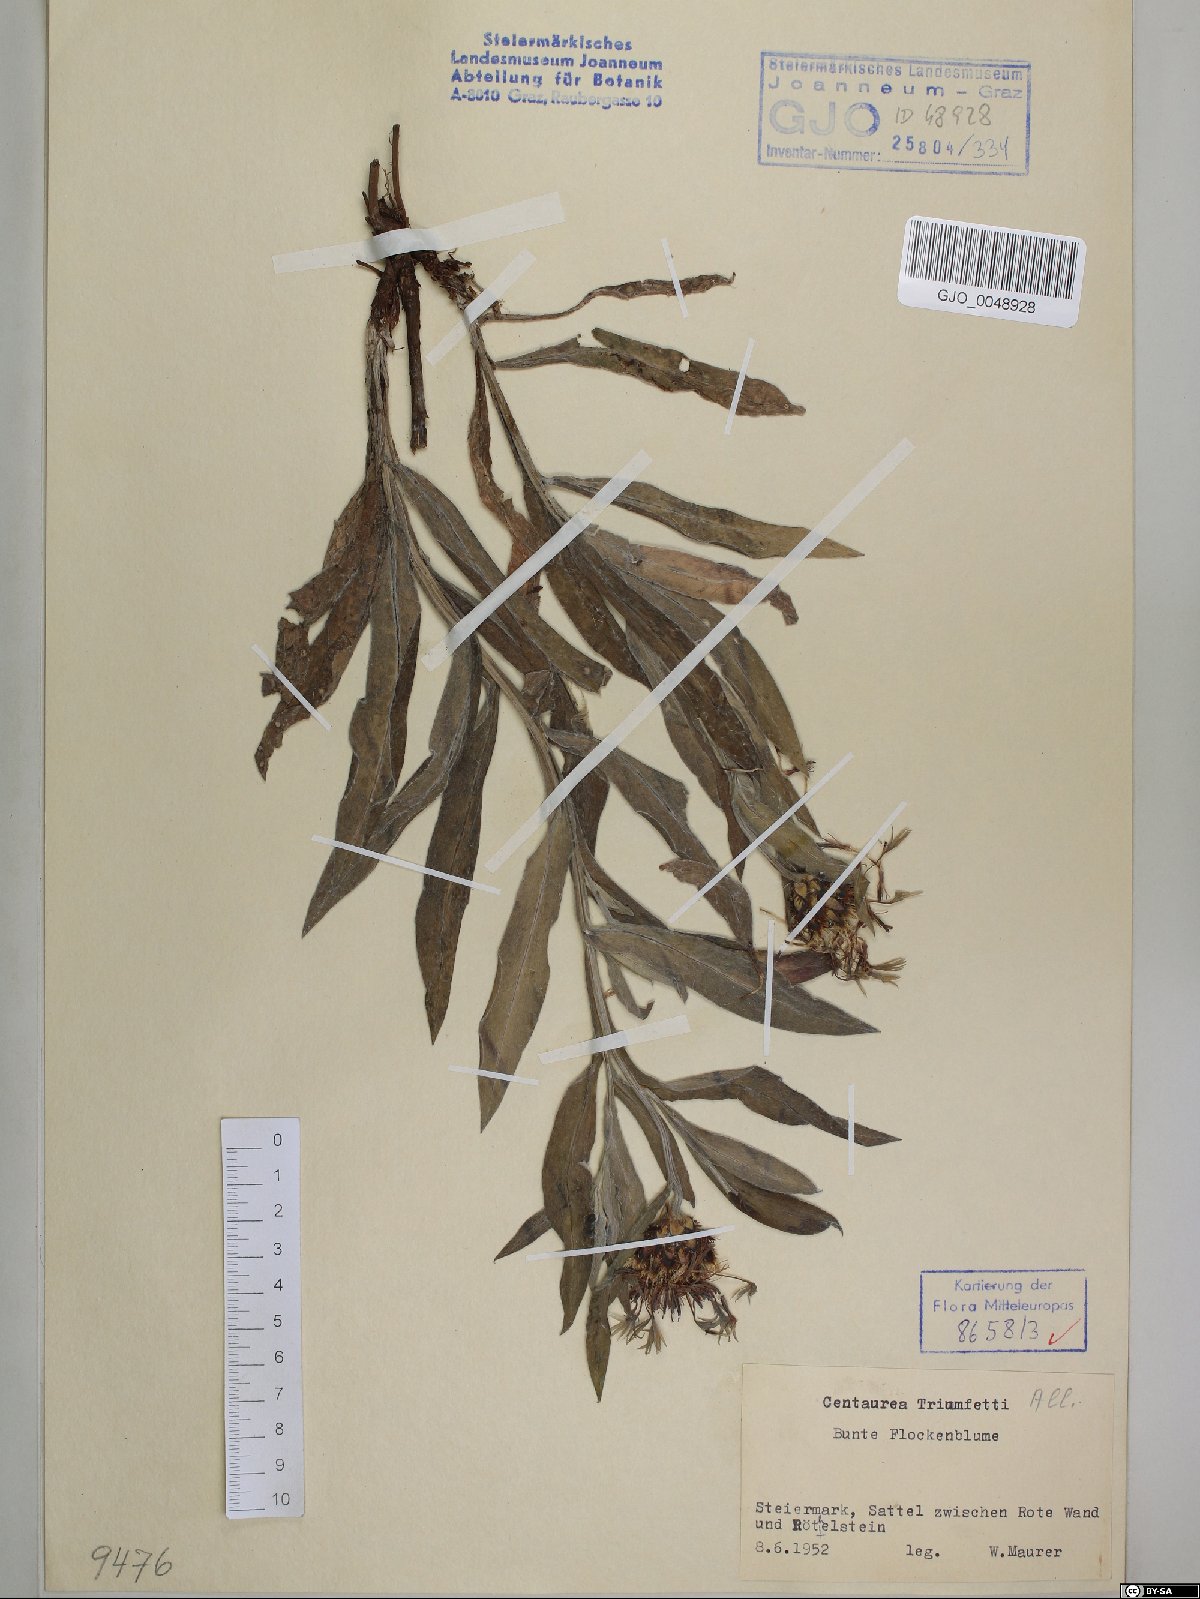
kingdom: Plantae
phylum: Tracheophyta
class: Magnoliopsida
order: Asterales
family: Asteraceae
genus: Centaurea
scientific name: Centaurea triumfettii
